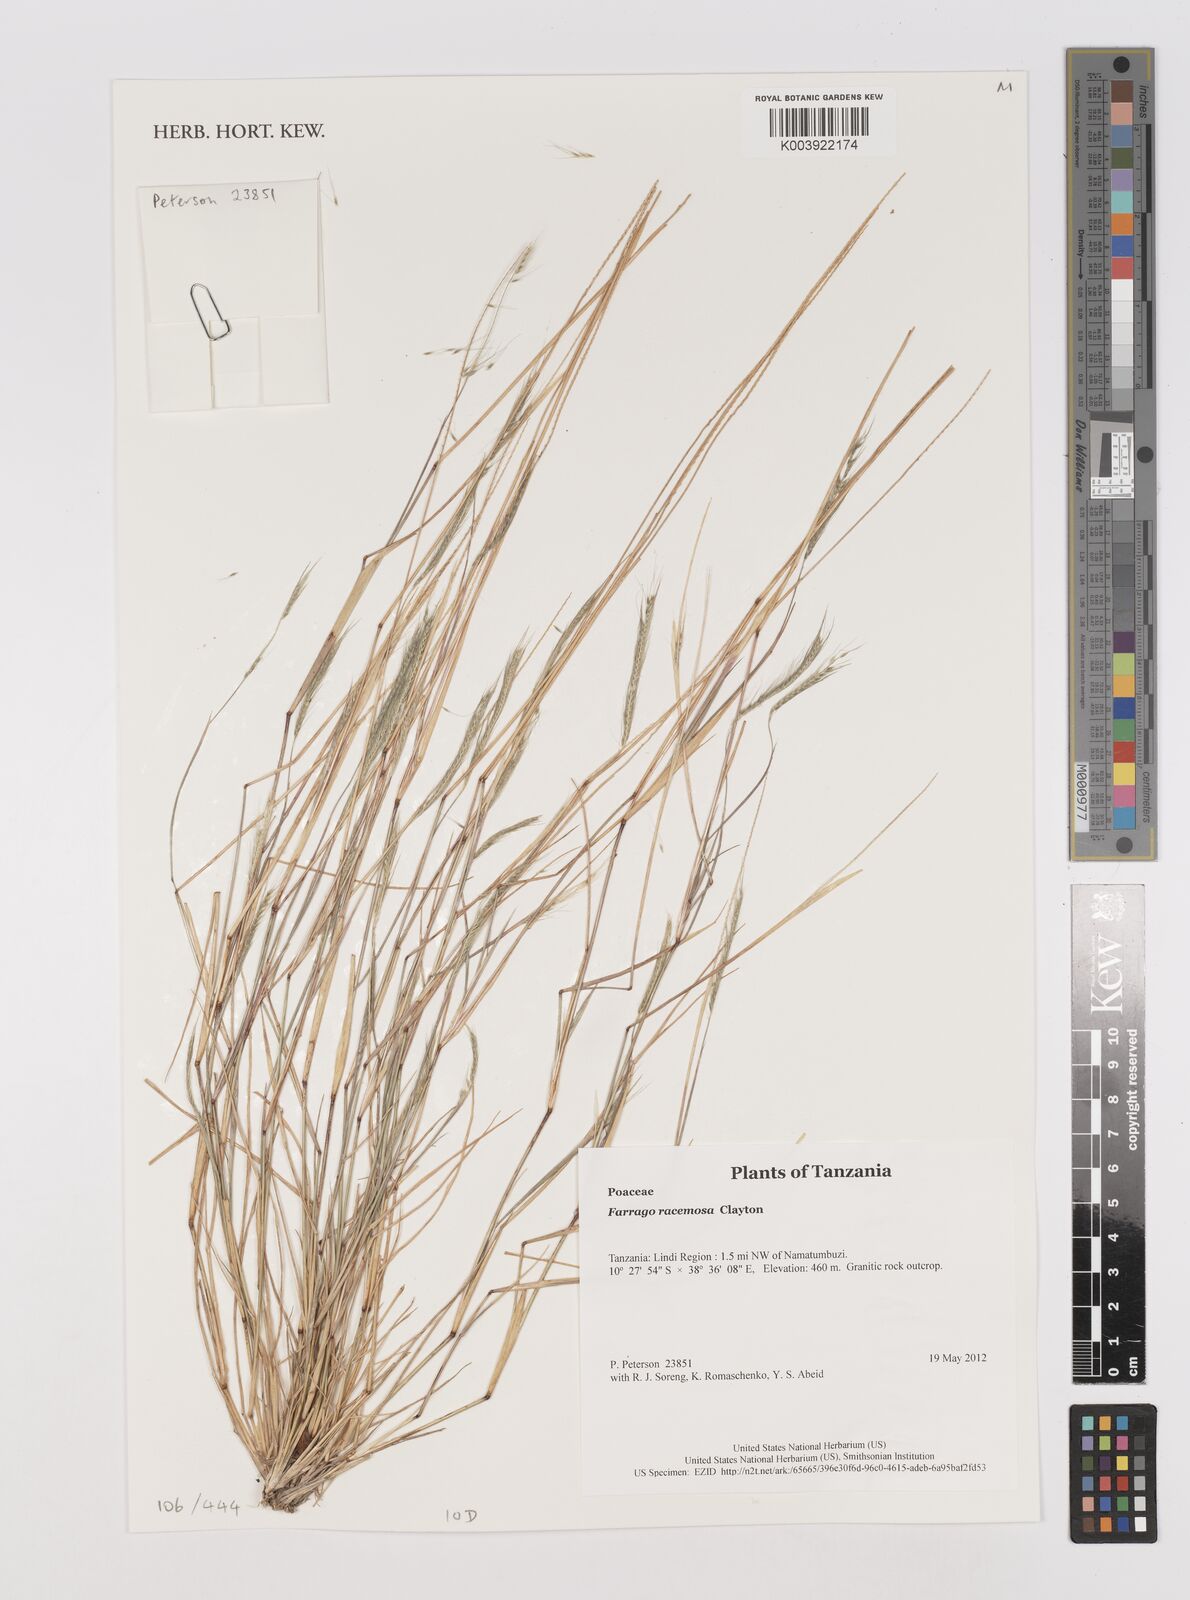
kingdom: Plantae
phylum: Tracheophyta
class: Liliopsida
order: Poales
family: Poaceae
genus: Farrago
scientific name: Farrago racemosa
